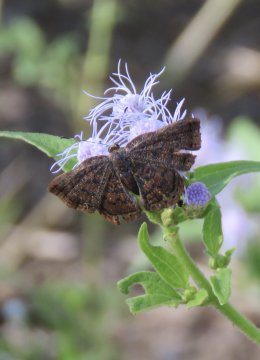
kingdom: Animalia
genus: Caria
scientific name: Caria ino
